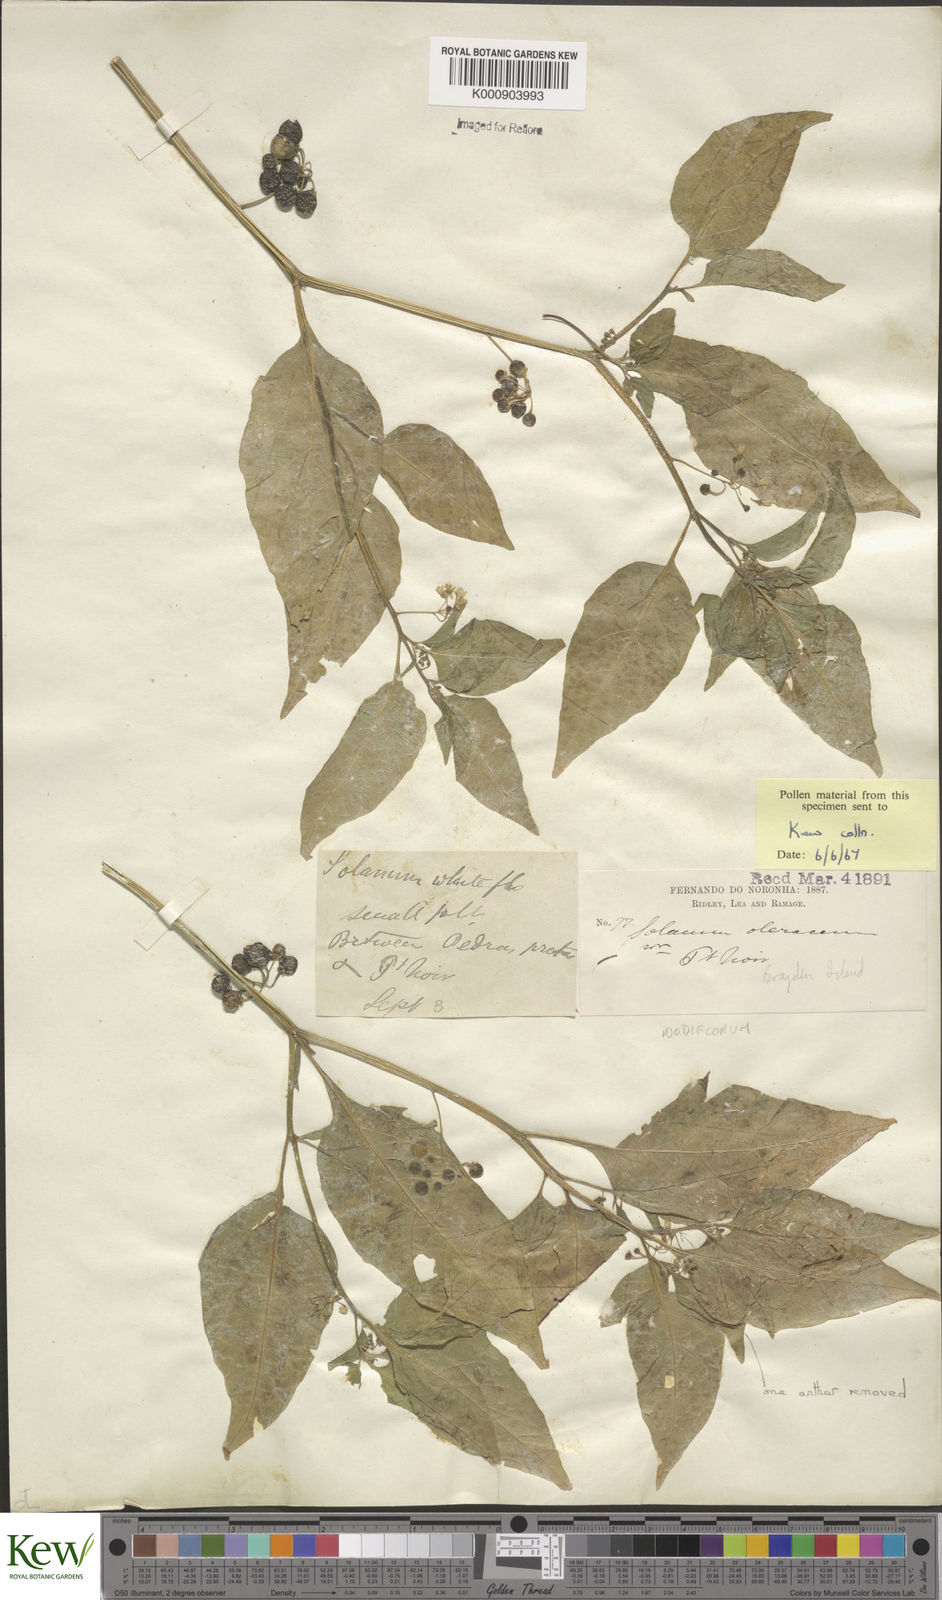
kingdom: Plantae
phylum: Tracheophyta
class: Magnoliopsida
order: Solanales
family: Solanaceae
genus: Solanum
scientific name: Solanum americanum
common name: American black nightshade
